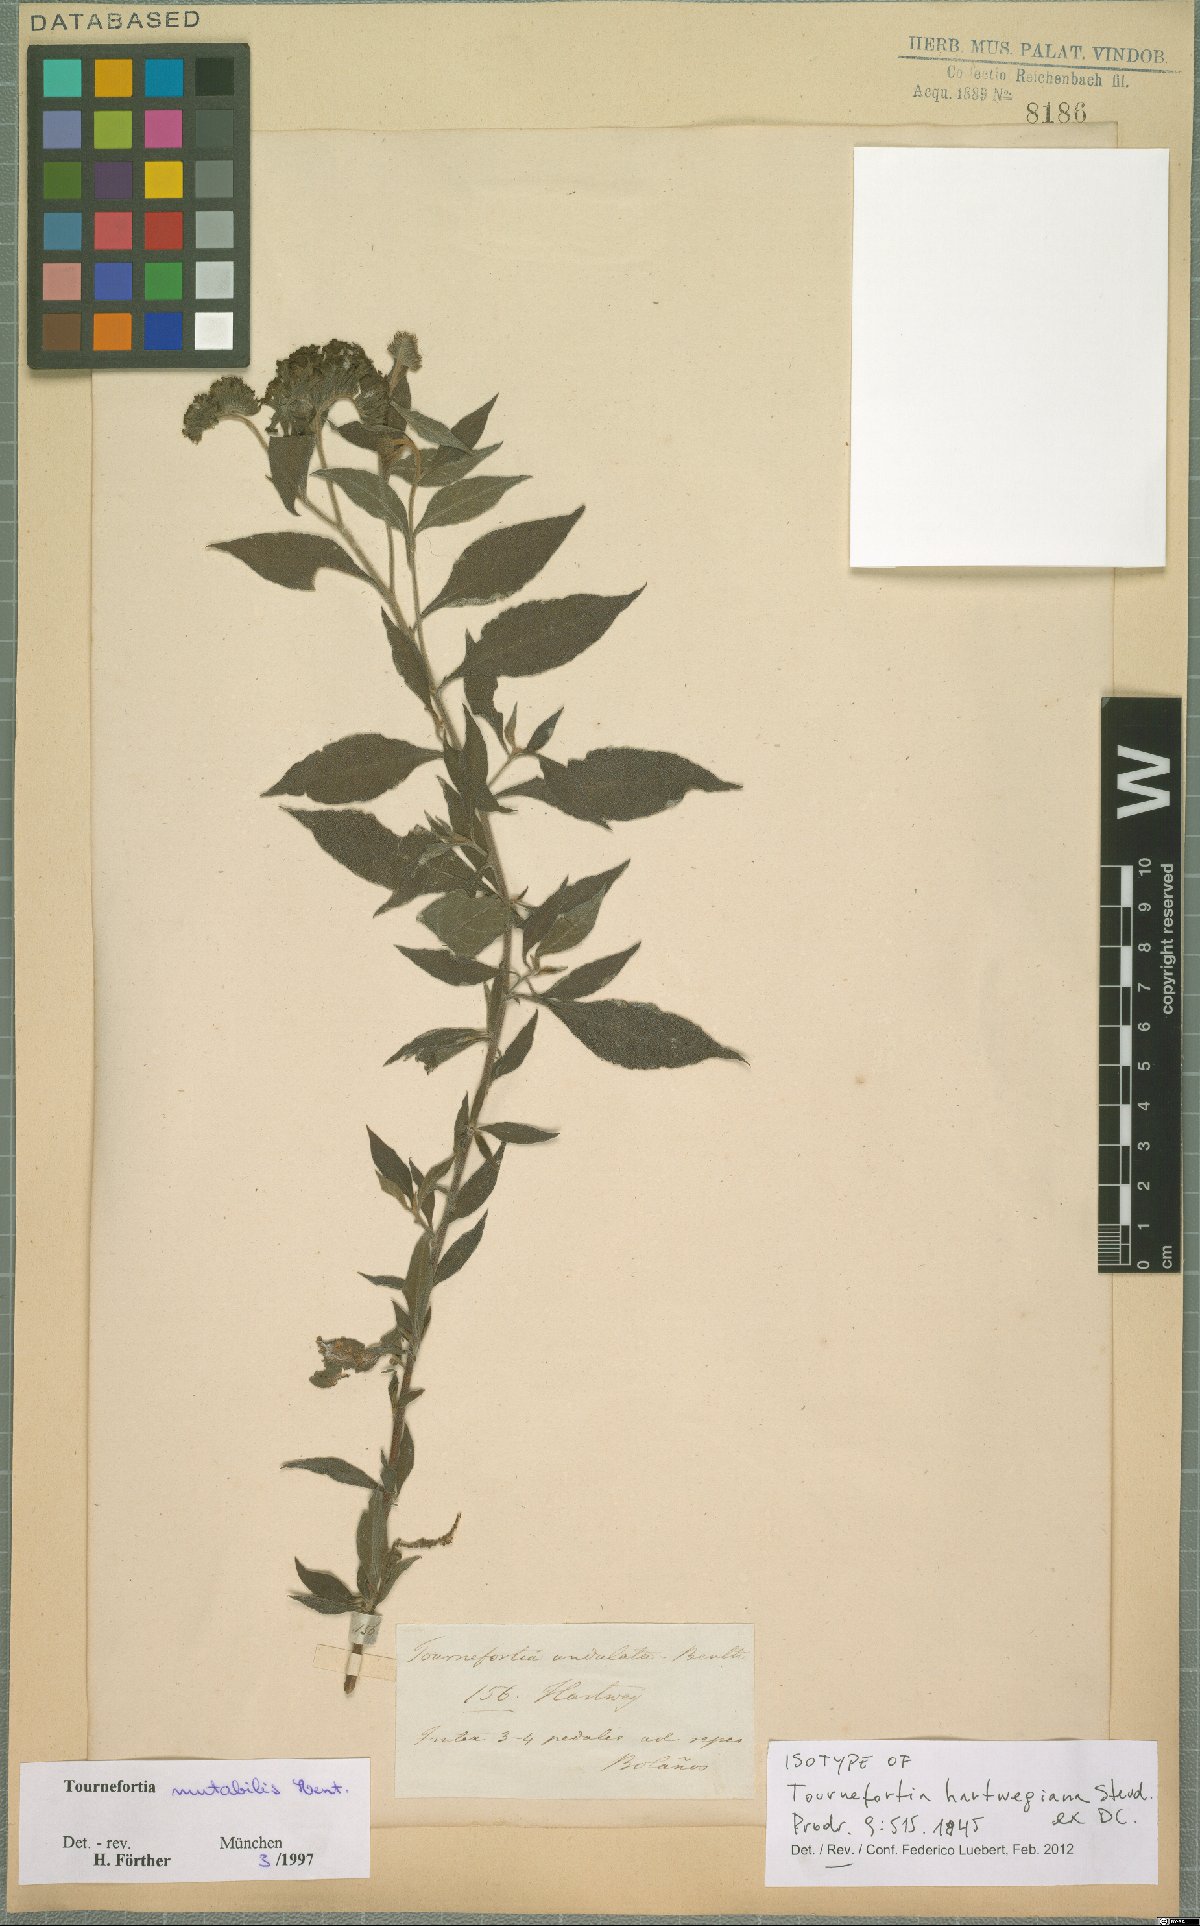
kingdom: Plantae
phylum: Tracheophyta
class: Magnoliopsida
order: Boraginales
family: Heliotropiaceae
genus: Tournefortia
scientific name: Tournefortia mutabilis
